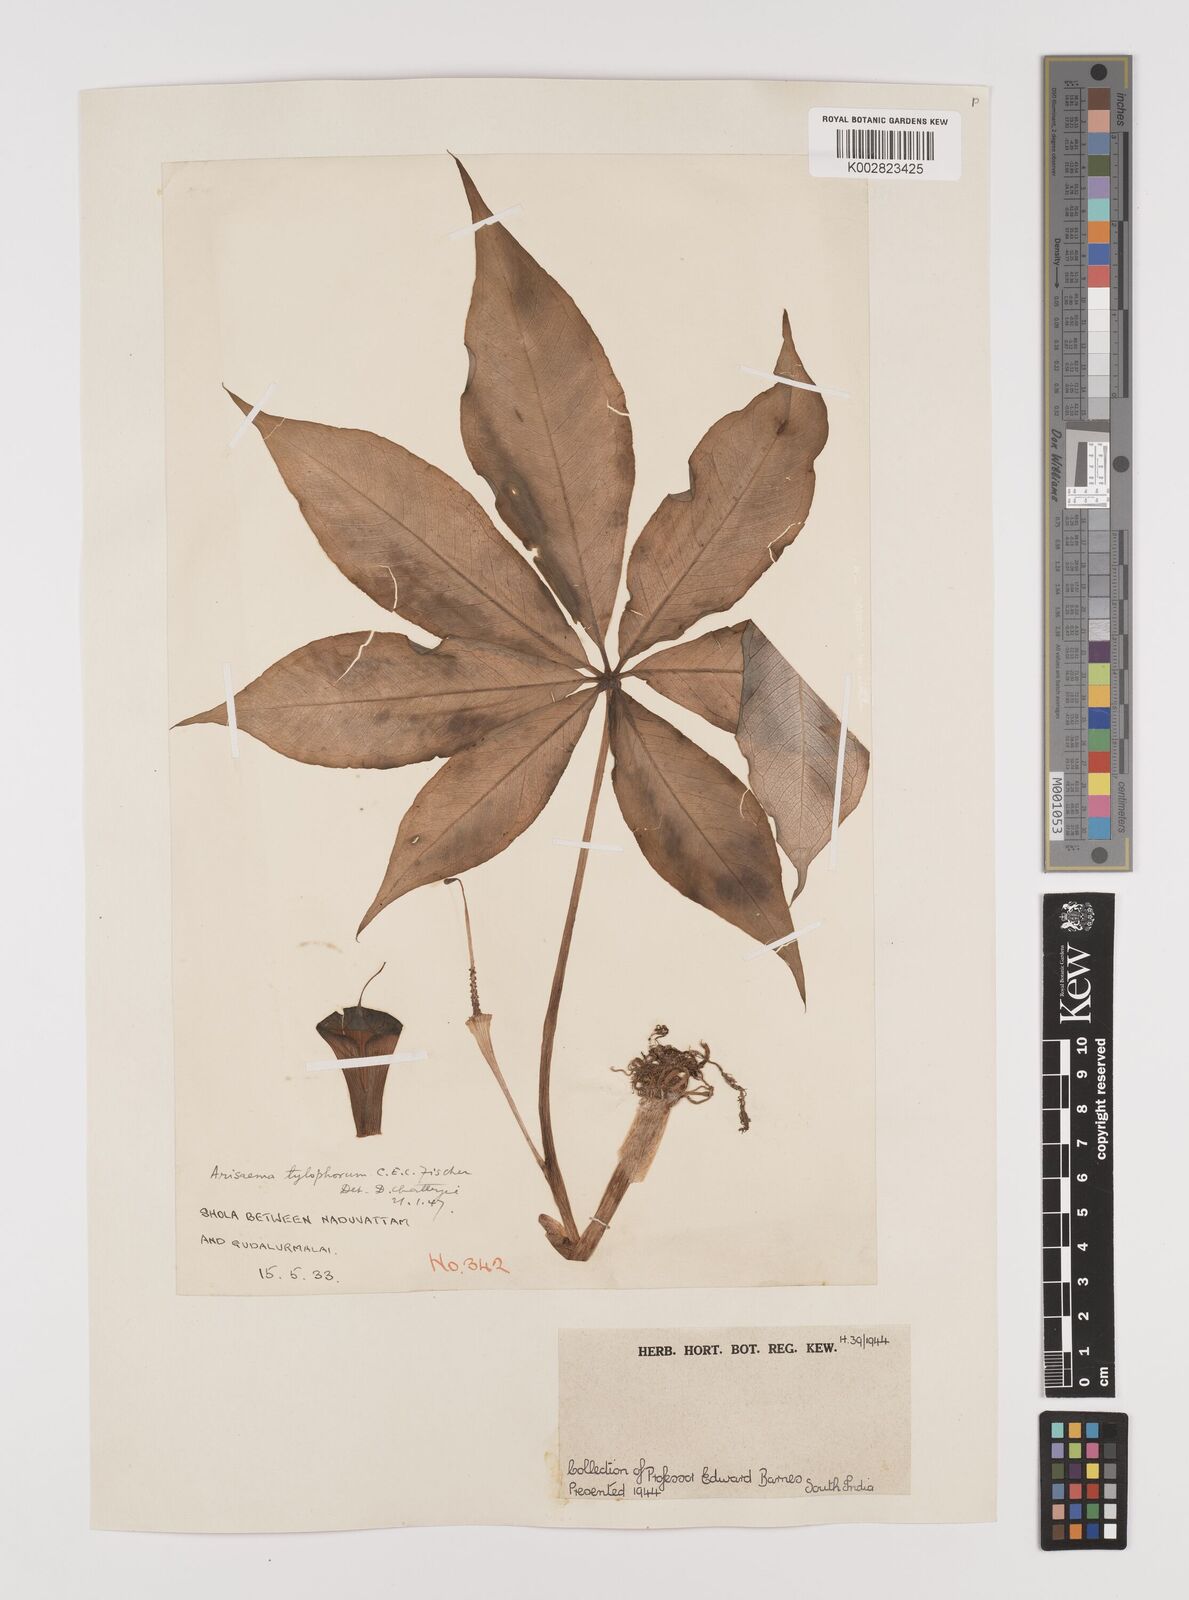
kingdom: Plantae
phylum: Tracheophyta
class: Liliopsida
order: Alismatales
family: Araceae
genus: Arisaema
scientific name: Arisaema barnesii
